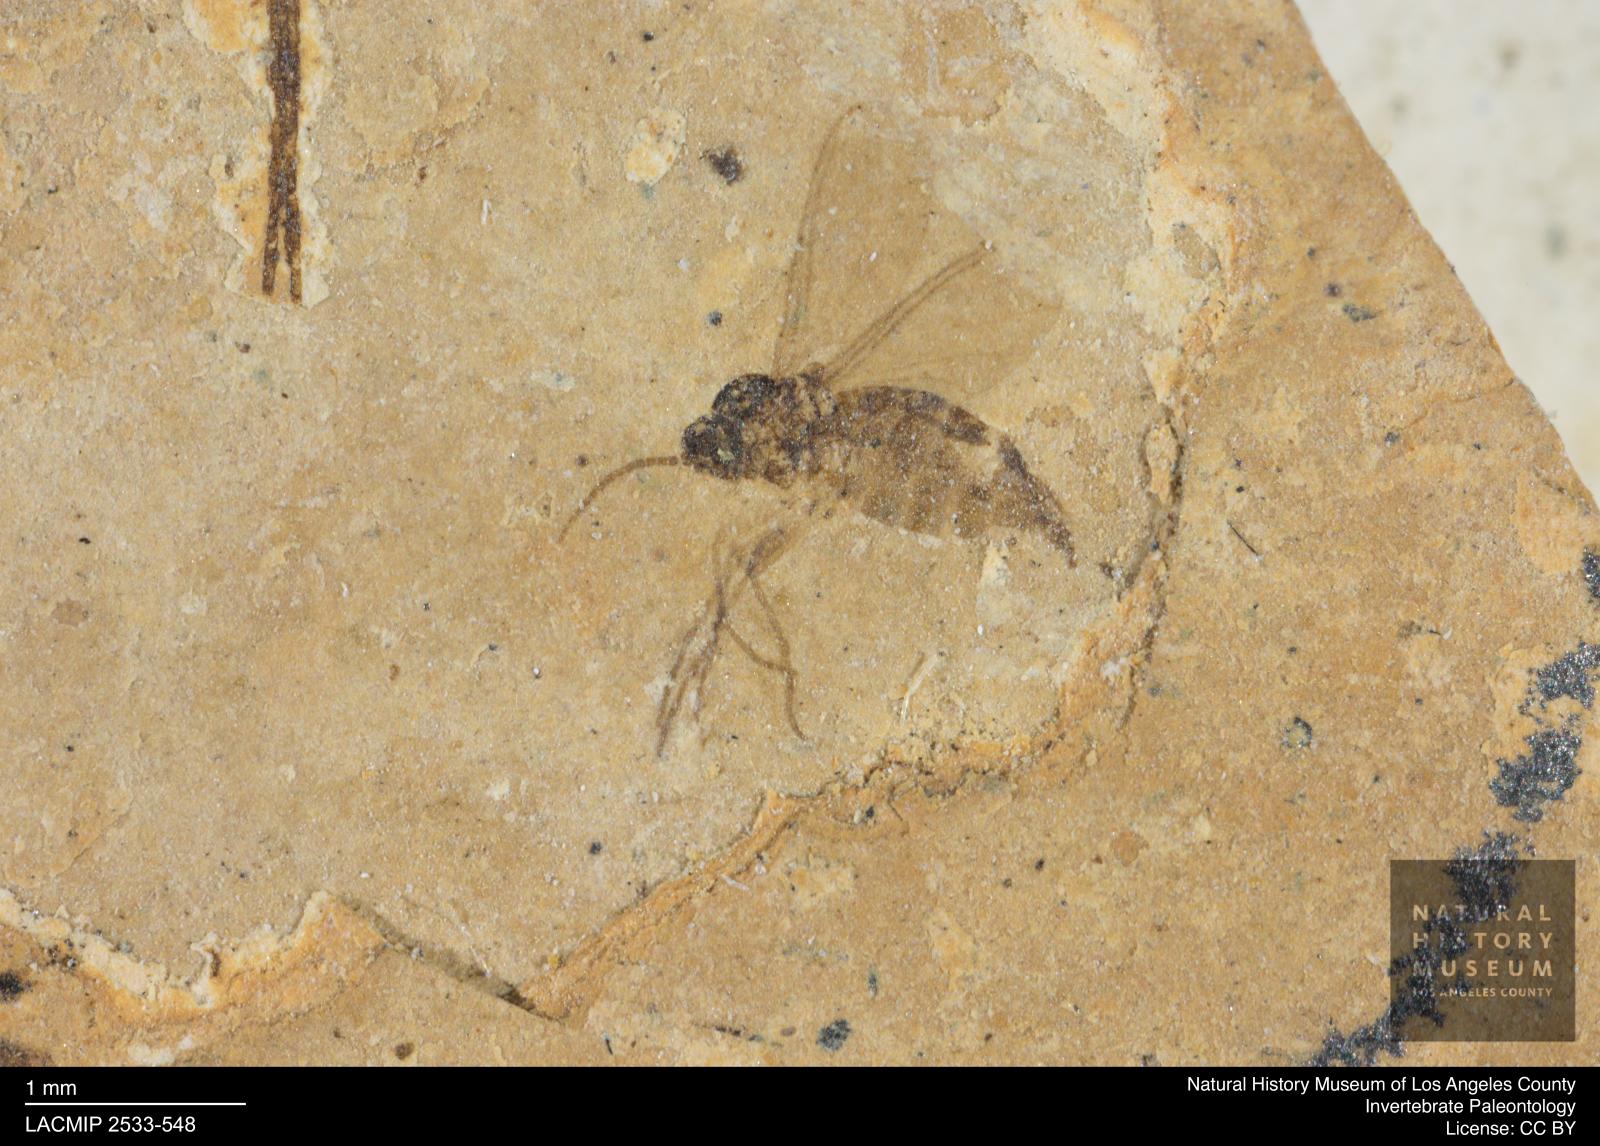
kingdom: Animalia
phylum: Arthropoda
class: Insecta
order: Diptera
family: Sciaridae
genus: Sciara
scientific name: Sciara amicula
